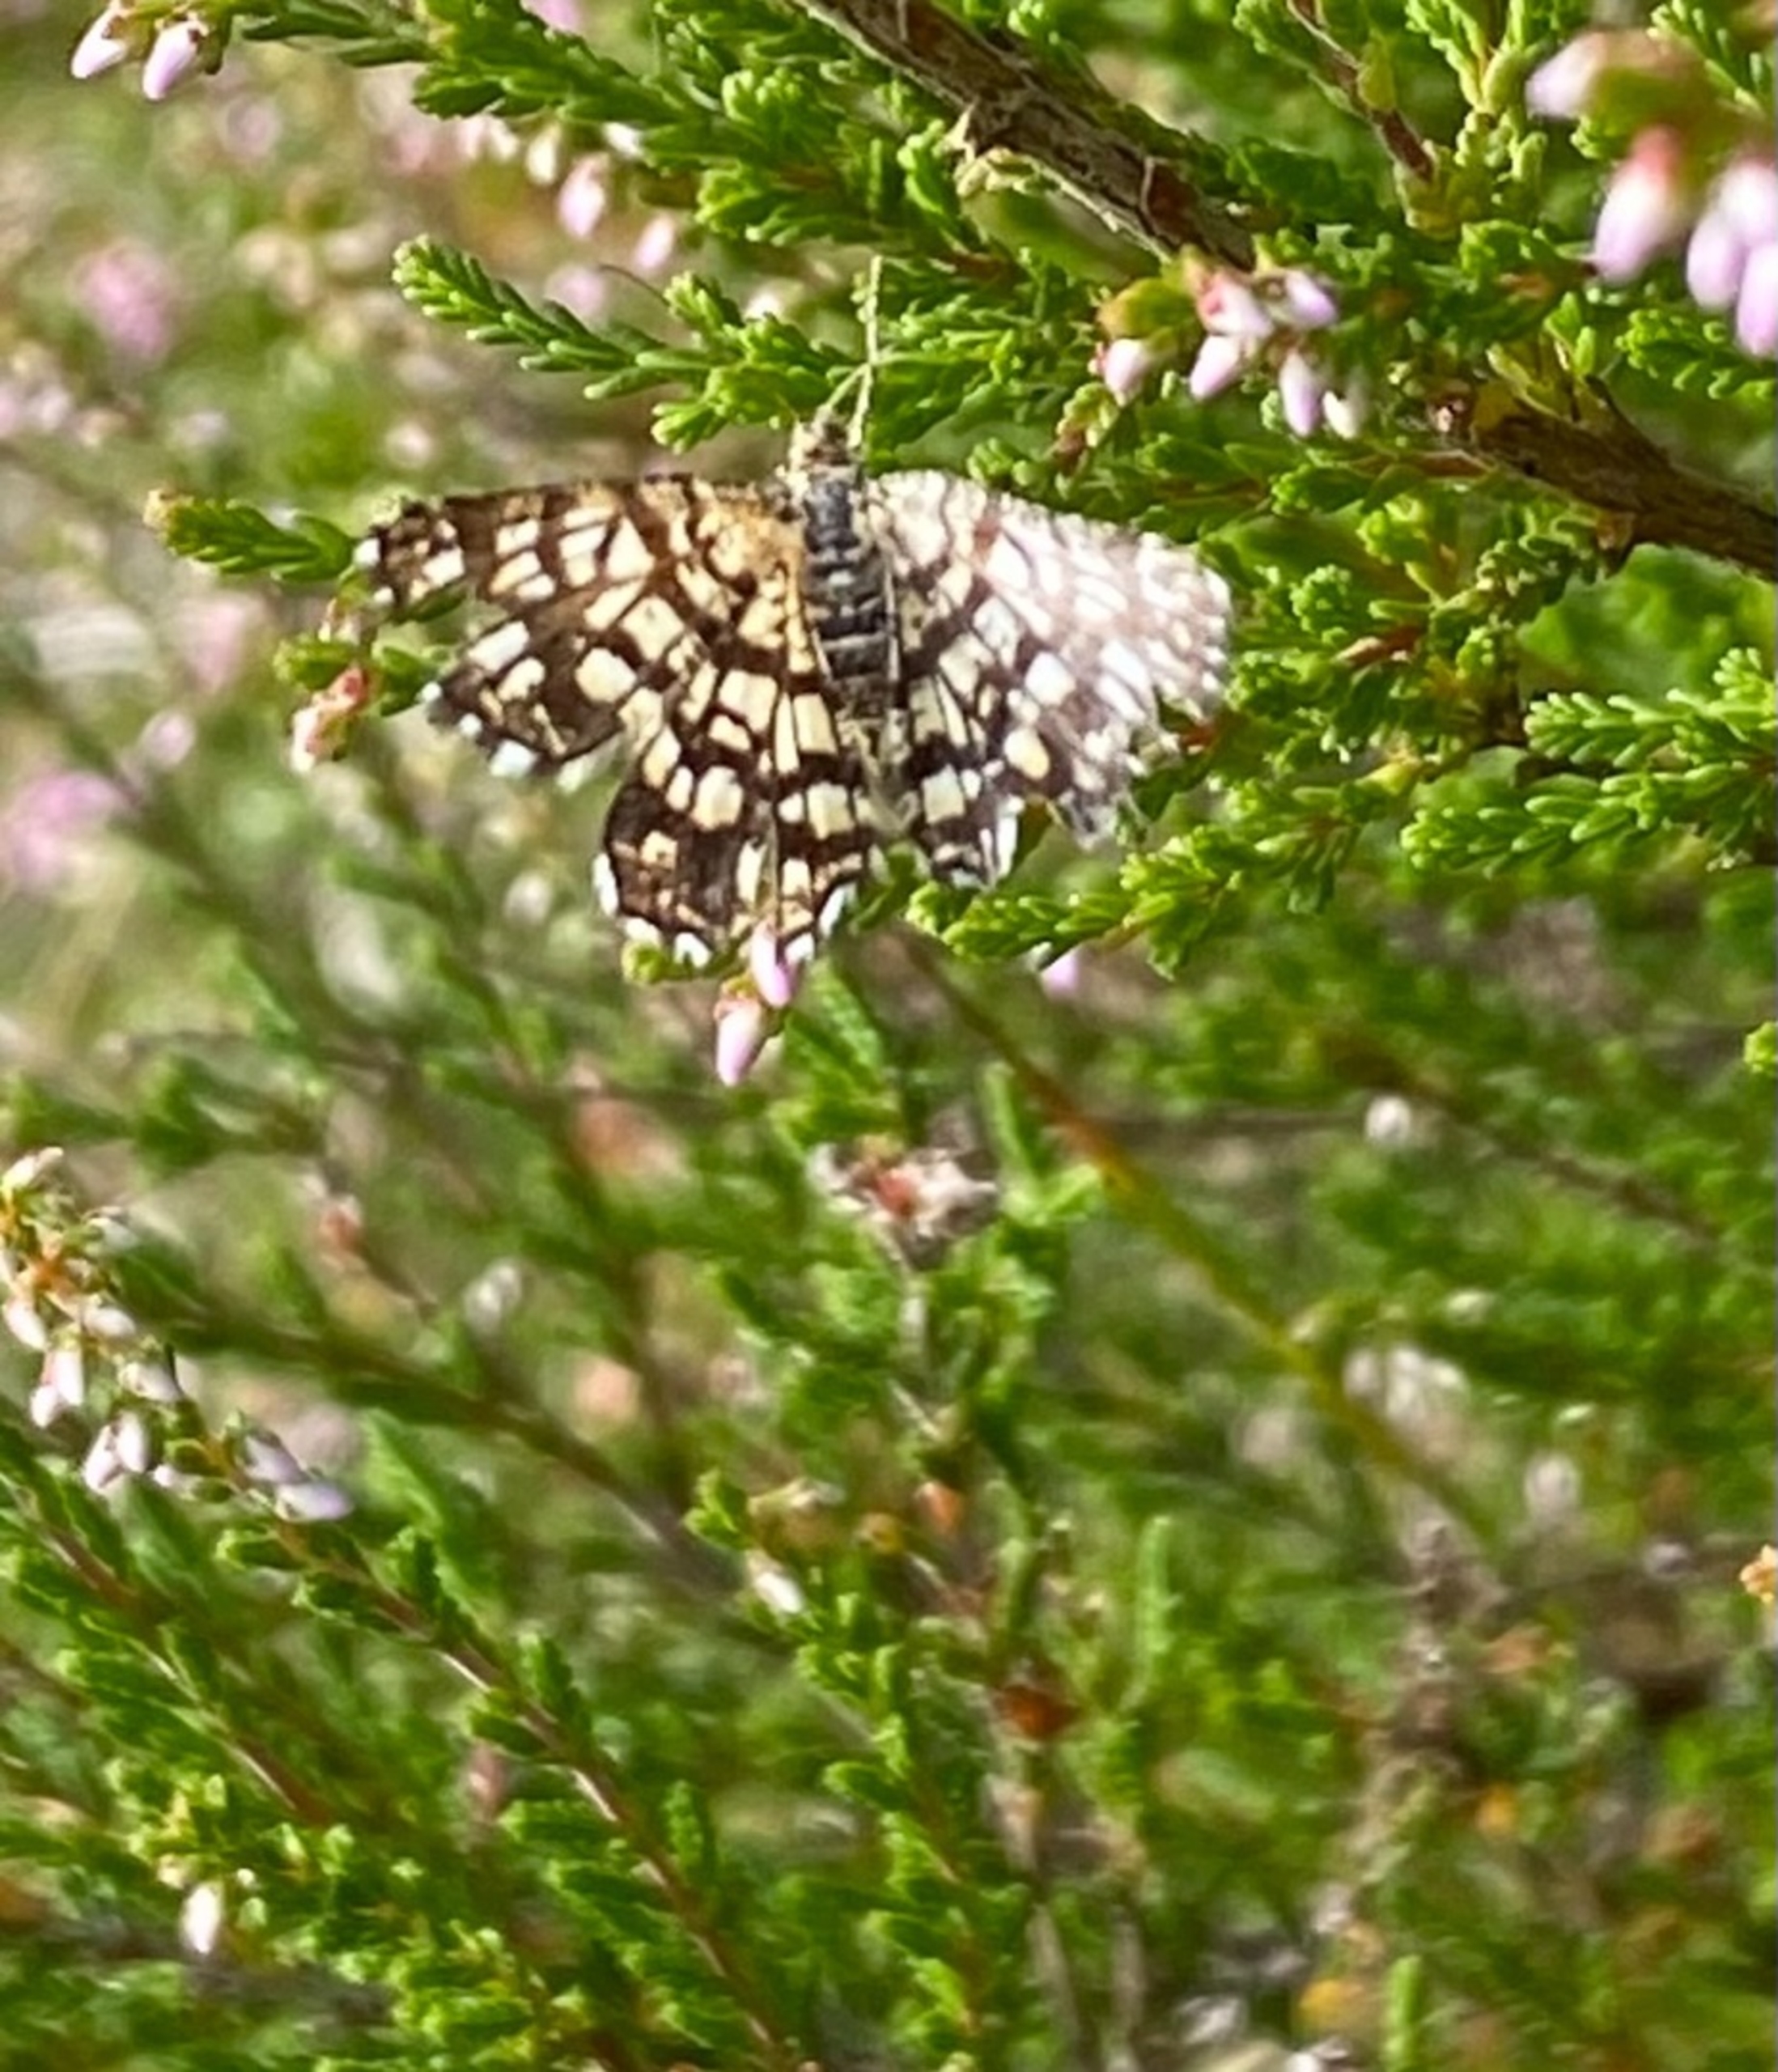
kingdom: Animalia
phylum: Arthropoda
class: Insecta
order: Lepidoptera
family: Geometridae
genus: Chiasmia
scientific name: Chiasmia clathrata
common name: Kløvermåler
